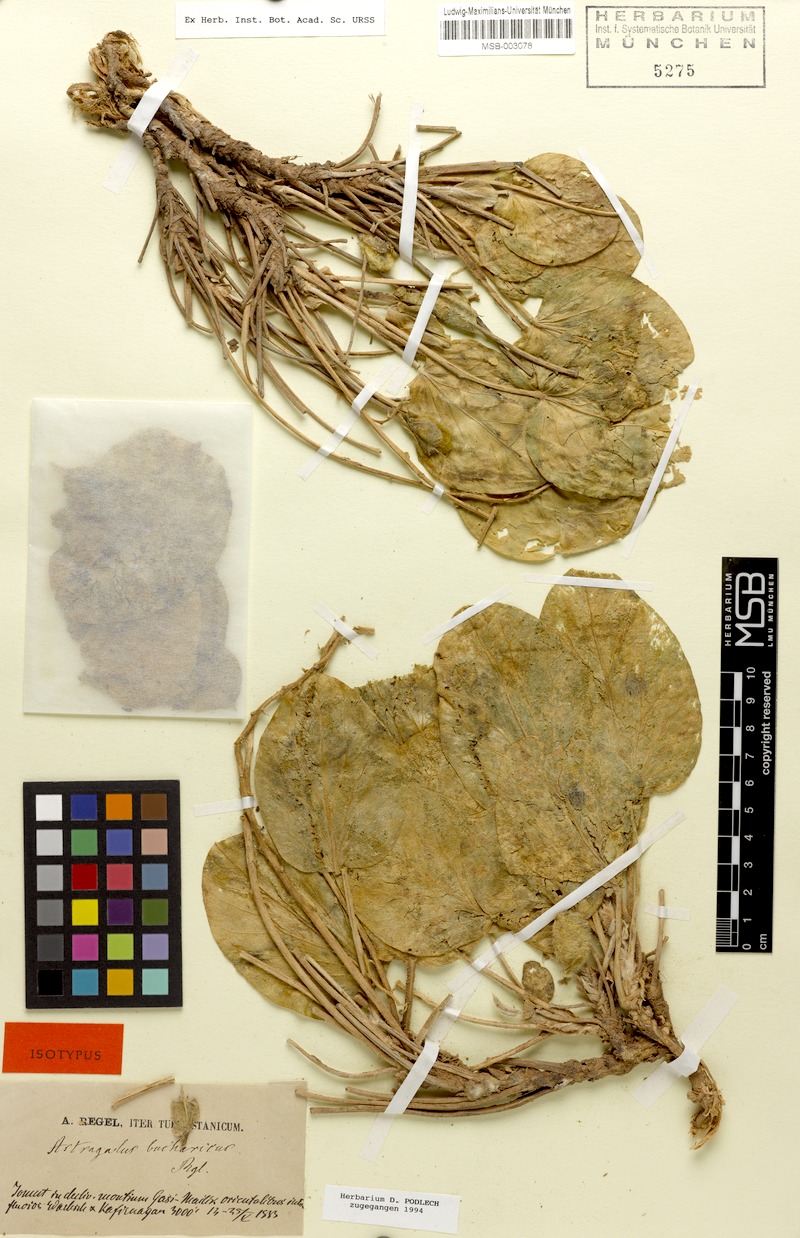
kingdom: Plantae
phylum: Tracheophyta
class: Magnoliopsida
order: Fabales
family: Fabaceae
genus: Astragalus
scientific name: Astragalus bucharicus
